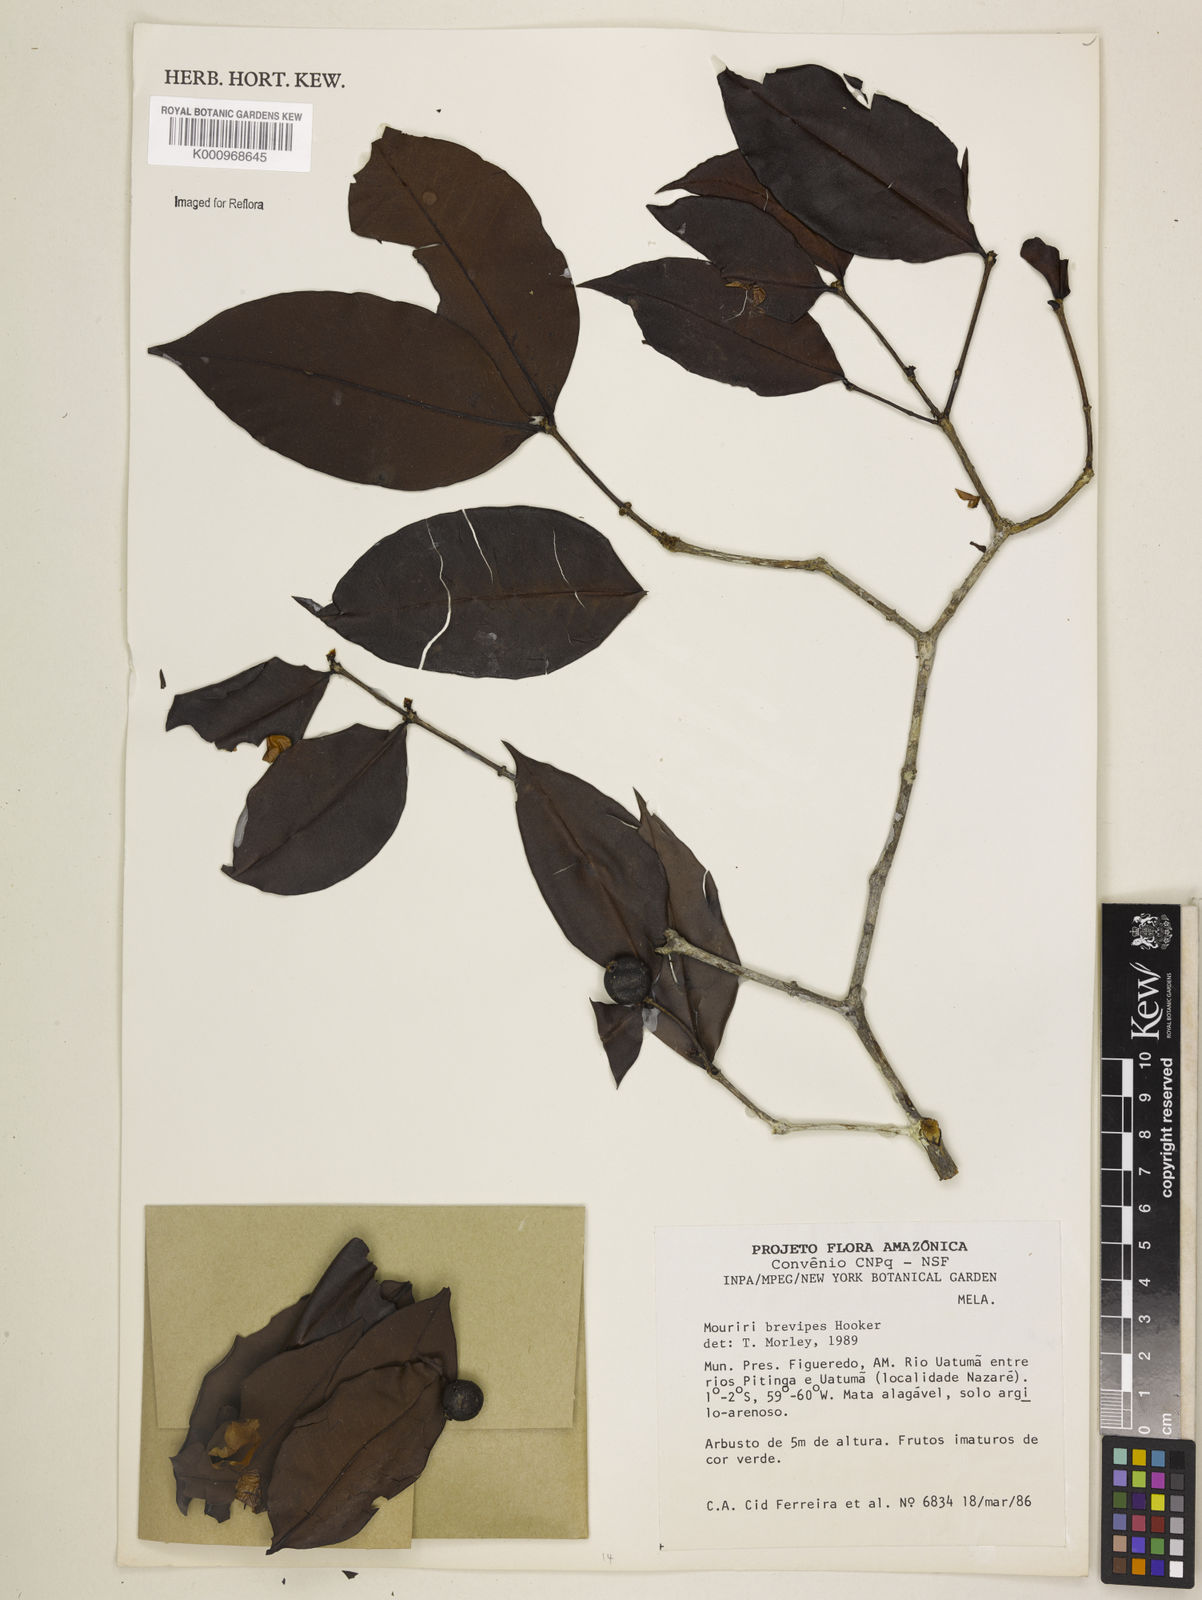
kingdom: Plantae
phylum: Tracheophyta
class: Magnoliopsida
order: Myrtales
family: Melastomataceae
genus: Mouriri
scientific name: Mouriri
